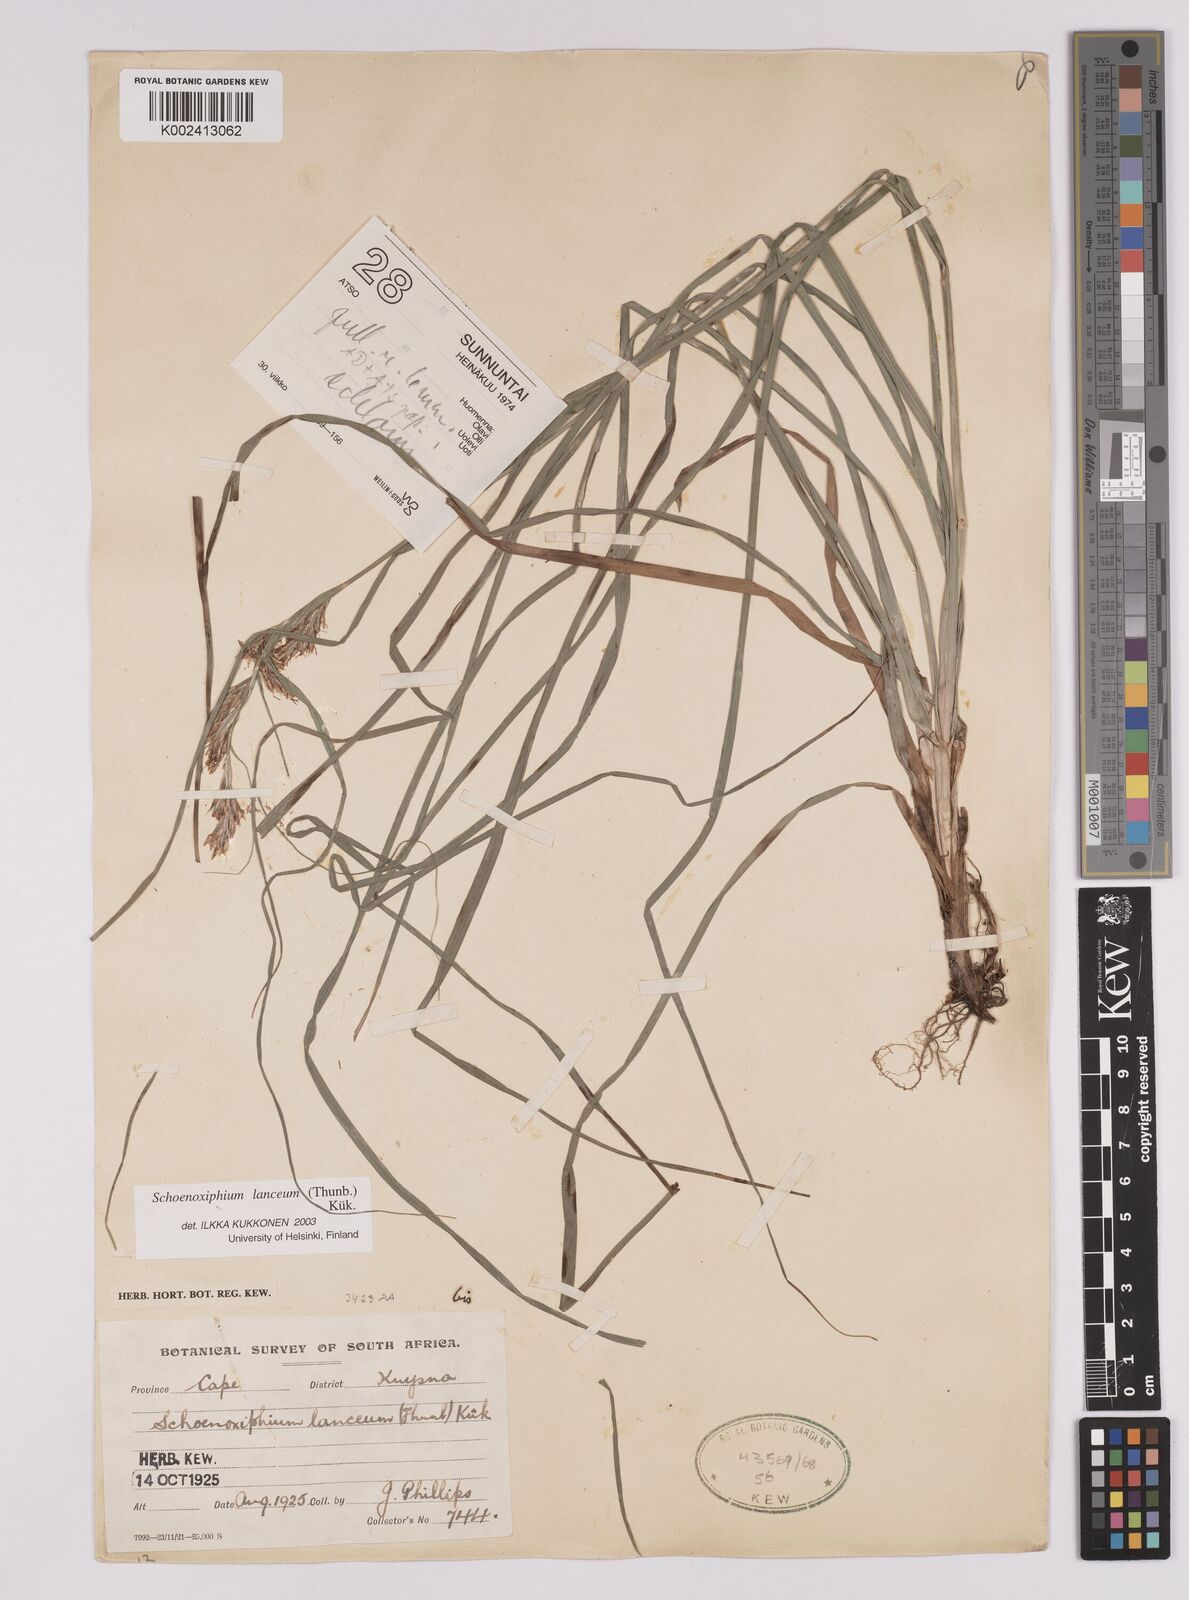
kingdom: Plantae
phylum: Tracheophyta
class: Liliopsida
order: Poales
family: Cyperaceae
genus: Carex
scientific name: Carex lancea
